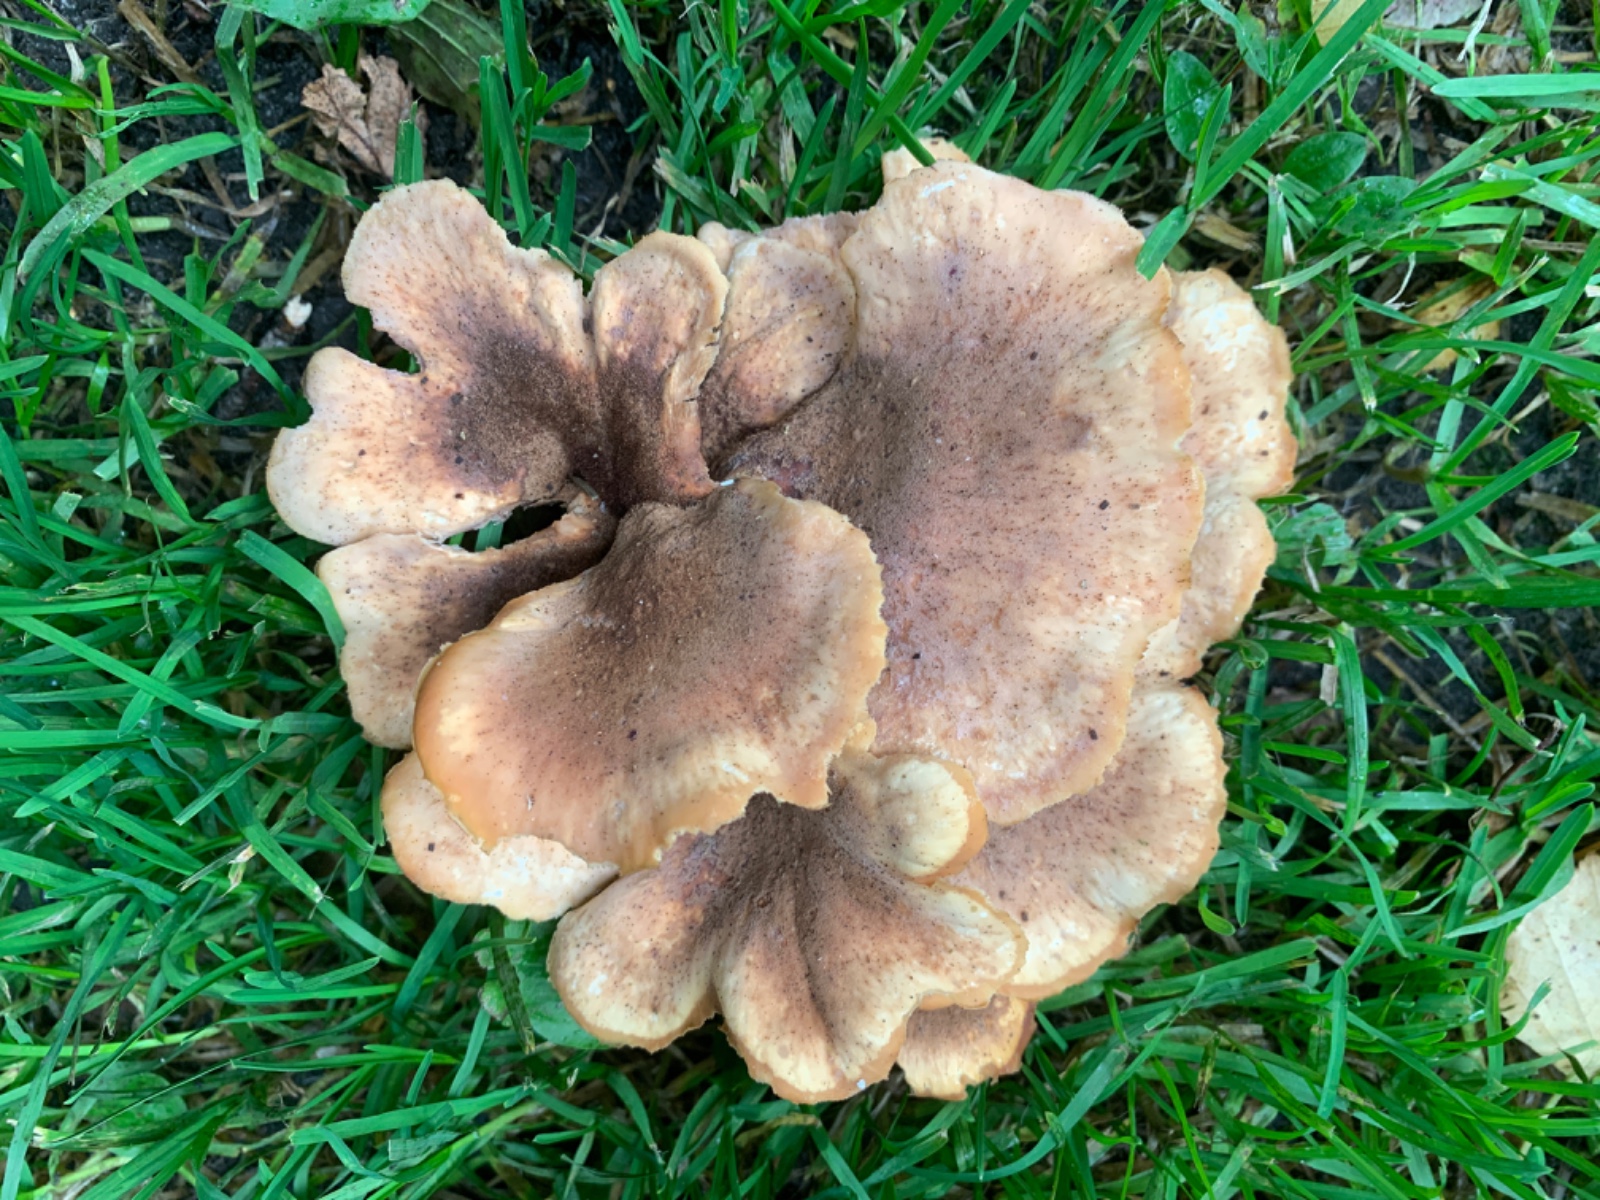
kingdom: Fungi
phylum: Basidiomycota
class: Agaricomycetes
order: Russulales
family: Auriscalpiaceae
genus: Lentinellus
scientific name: Lentinellus ursinus
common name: børstehåret savbladhat
